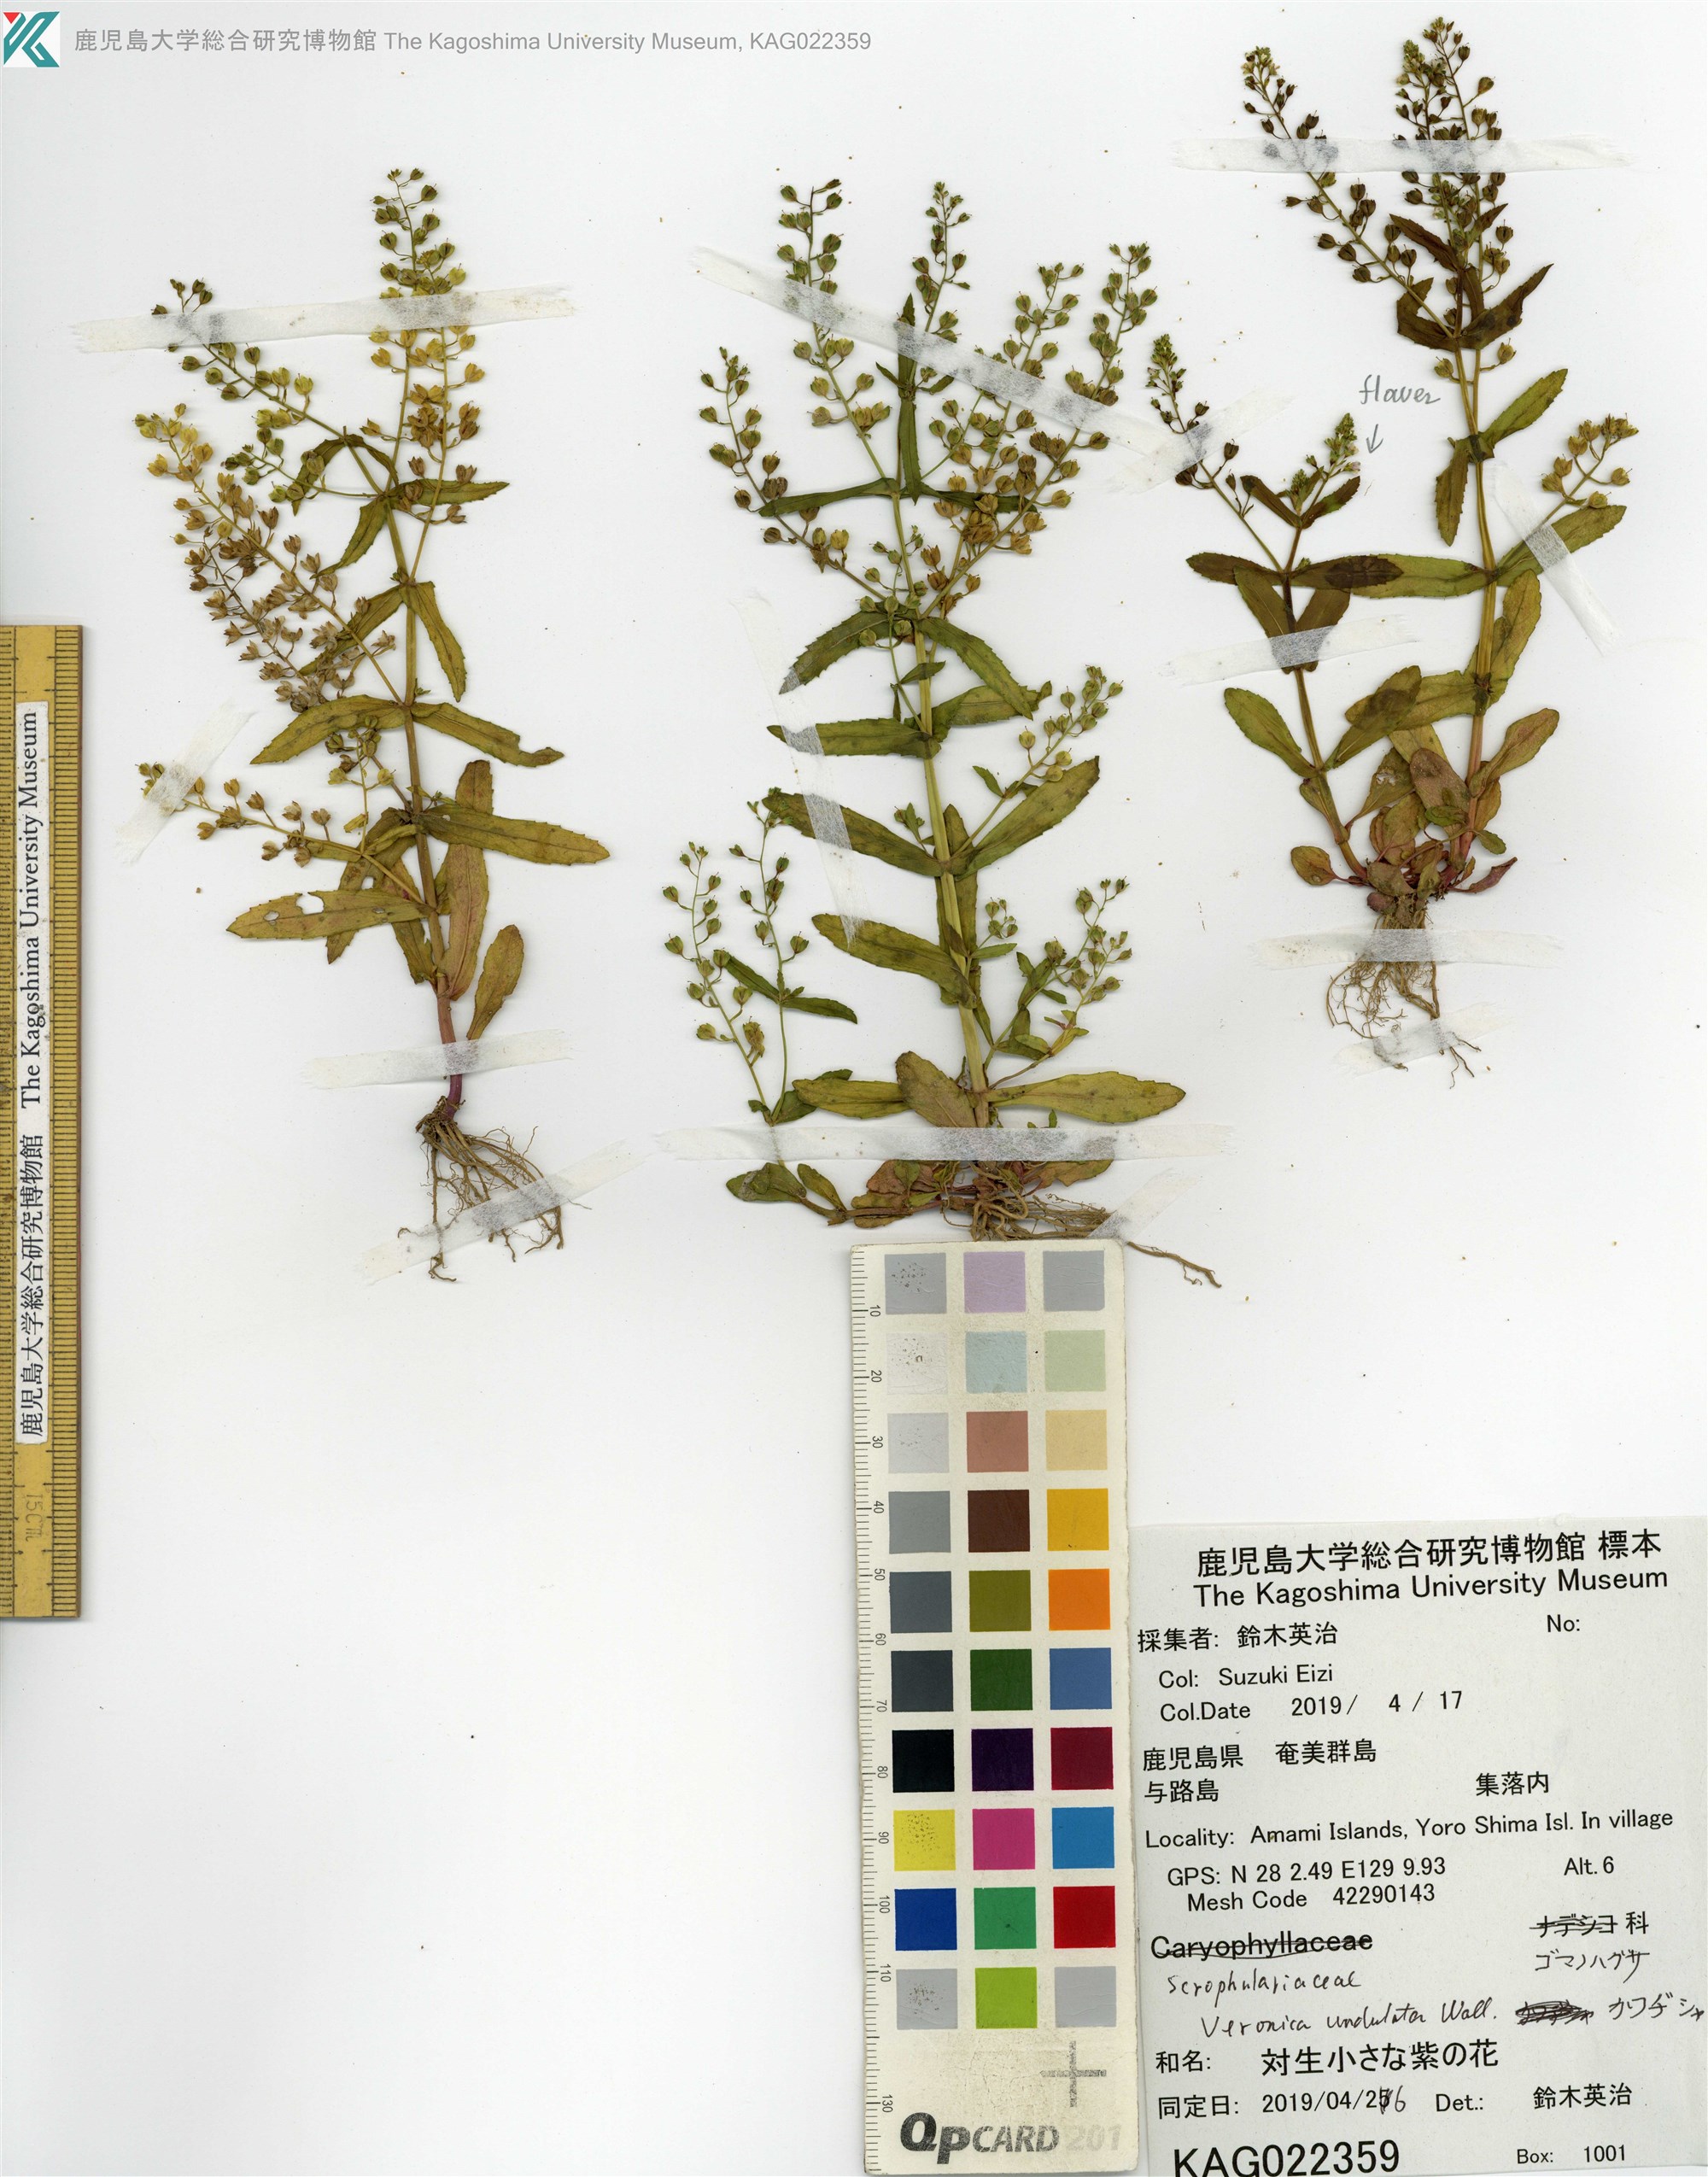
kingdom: Plantae
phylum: Tracheophyta
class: Magnoliopsida
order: Lamiales
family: Plantaginaceae
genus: Veronica
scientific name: Veronica undulata
